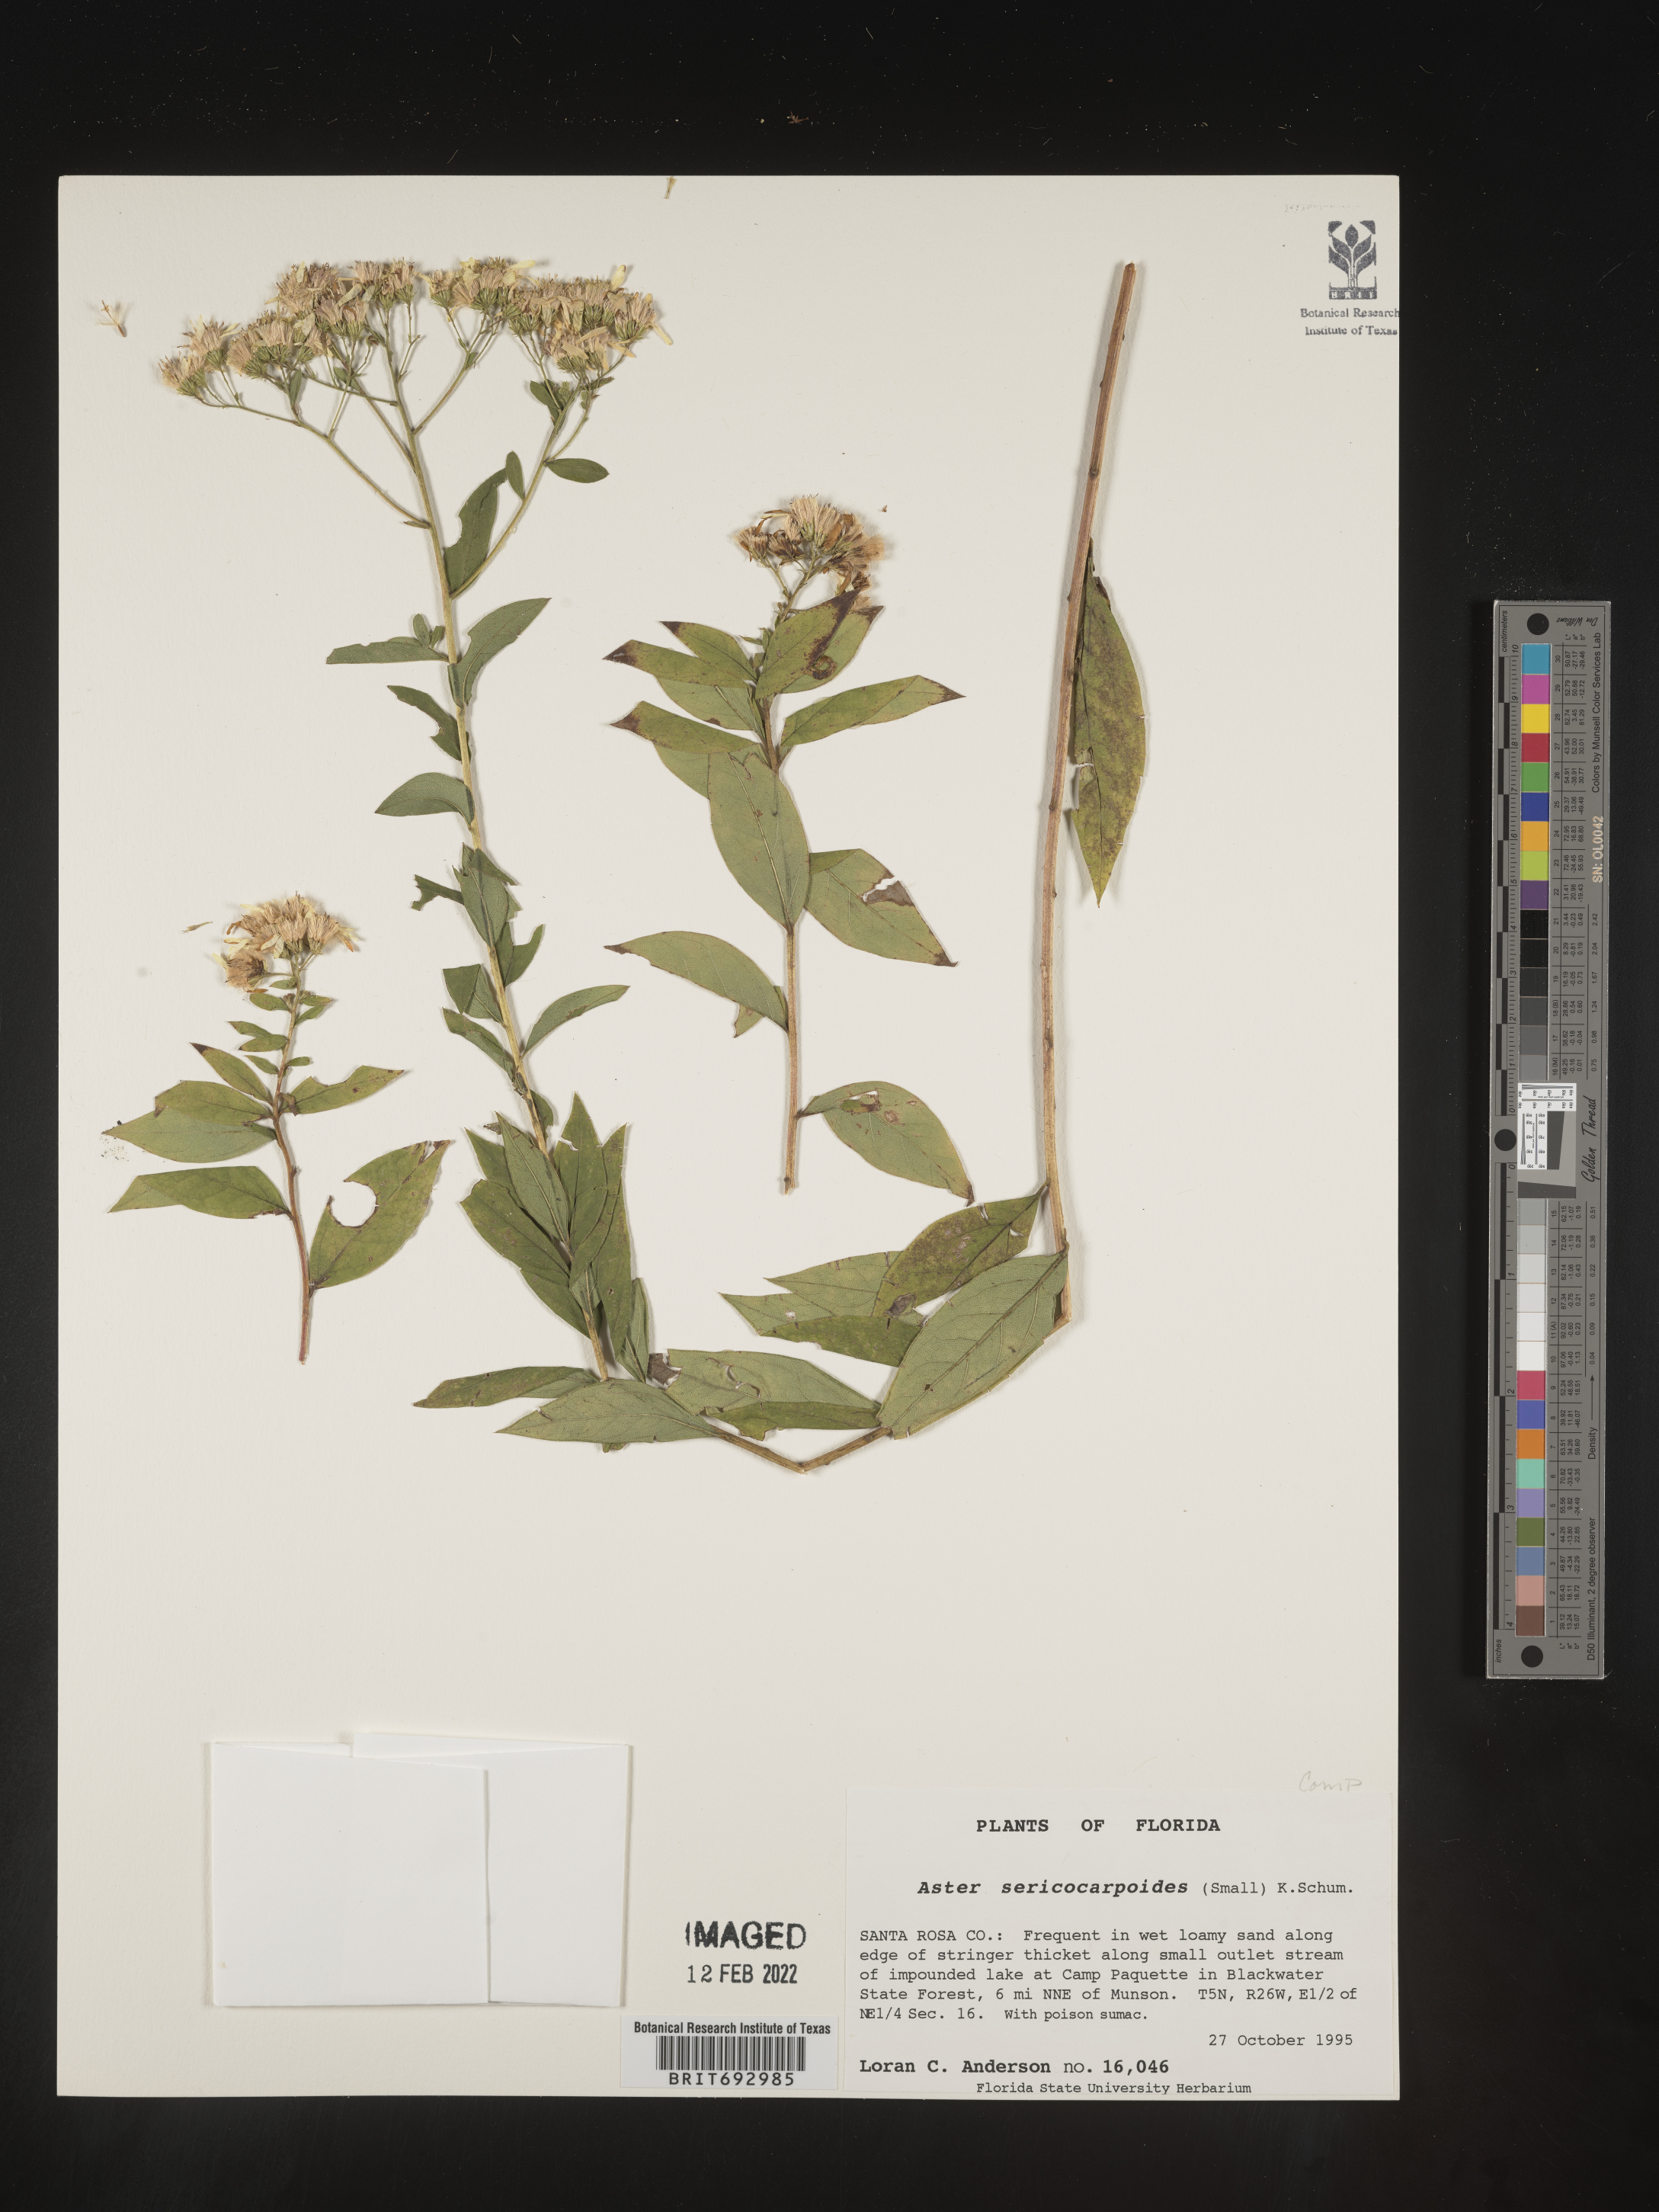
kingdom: Plantae
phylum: Tracheophyta
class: Magnoliopsida
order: Asterales
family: Asteraceae
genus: Doellingeria
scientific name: Doellingeria sericocarpoides
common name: Southern tall flat-top aster
